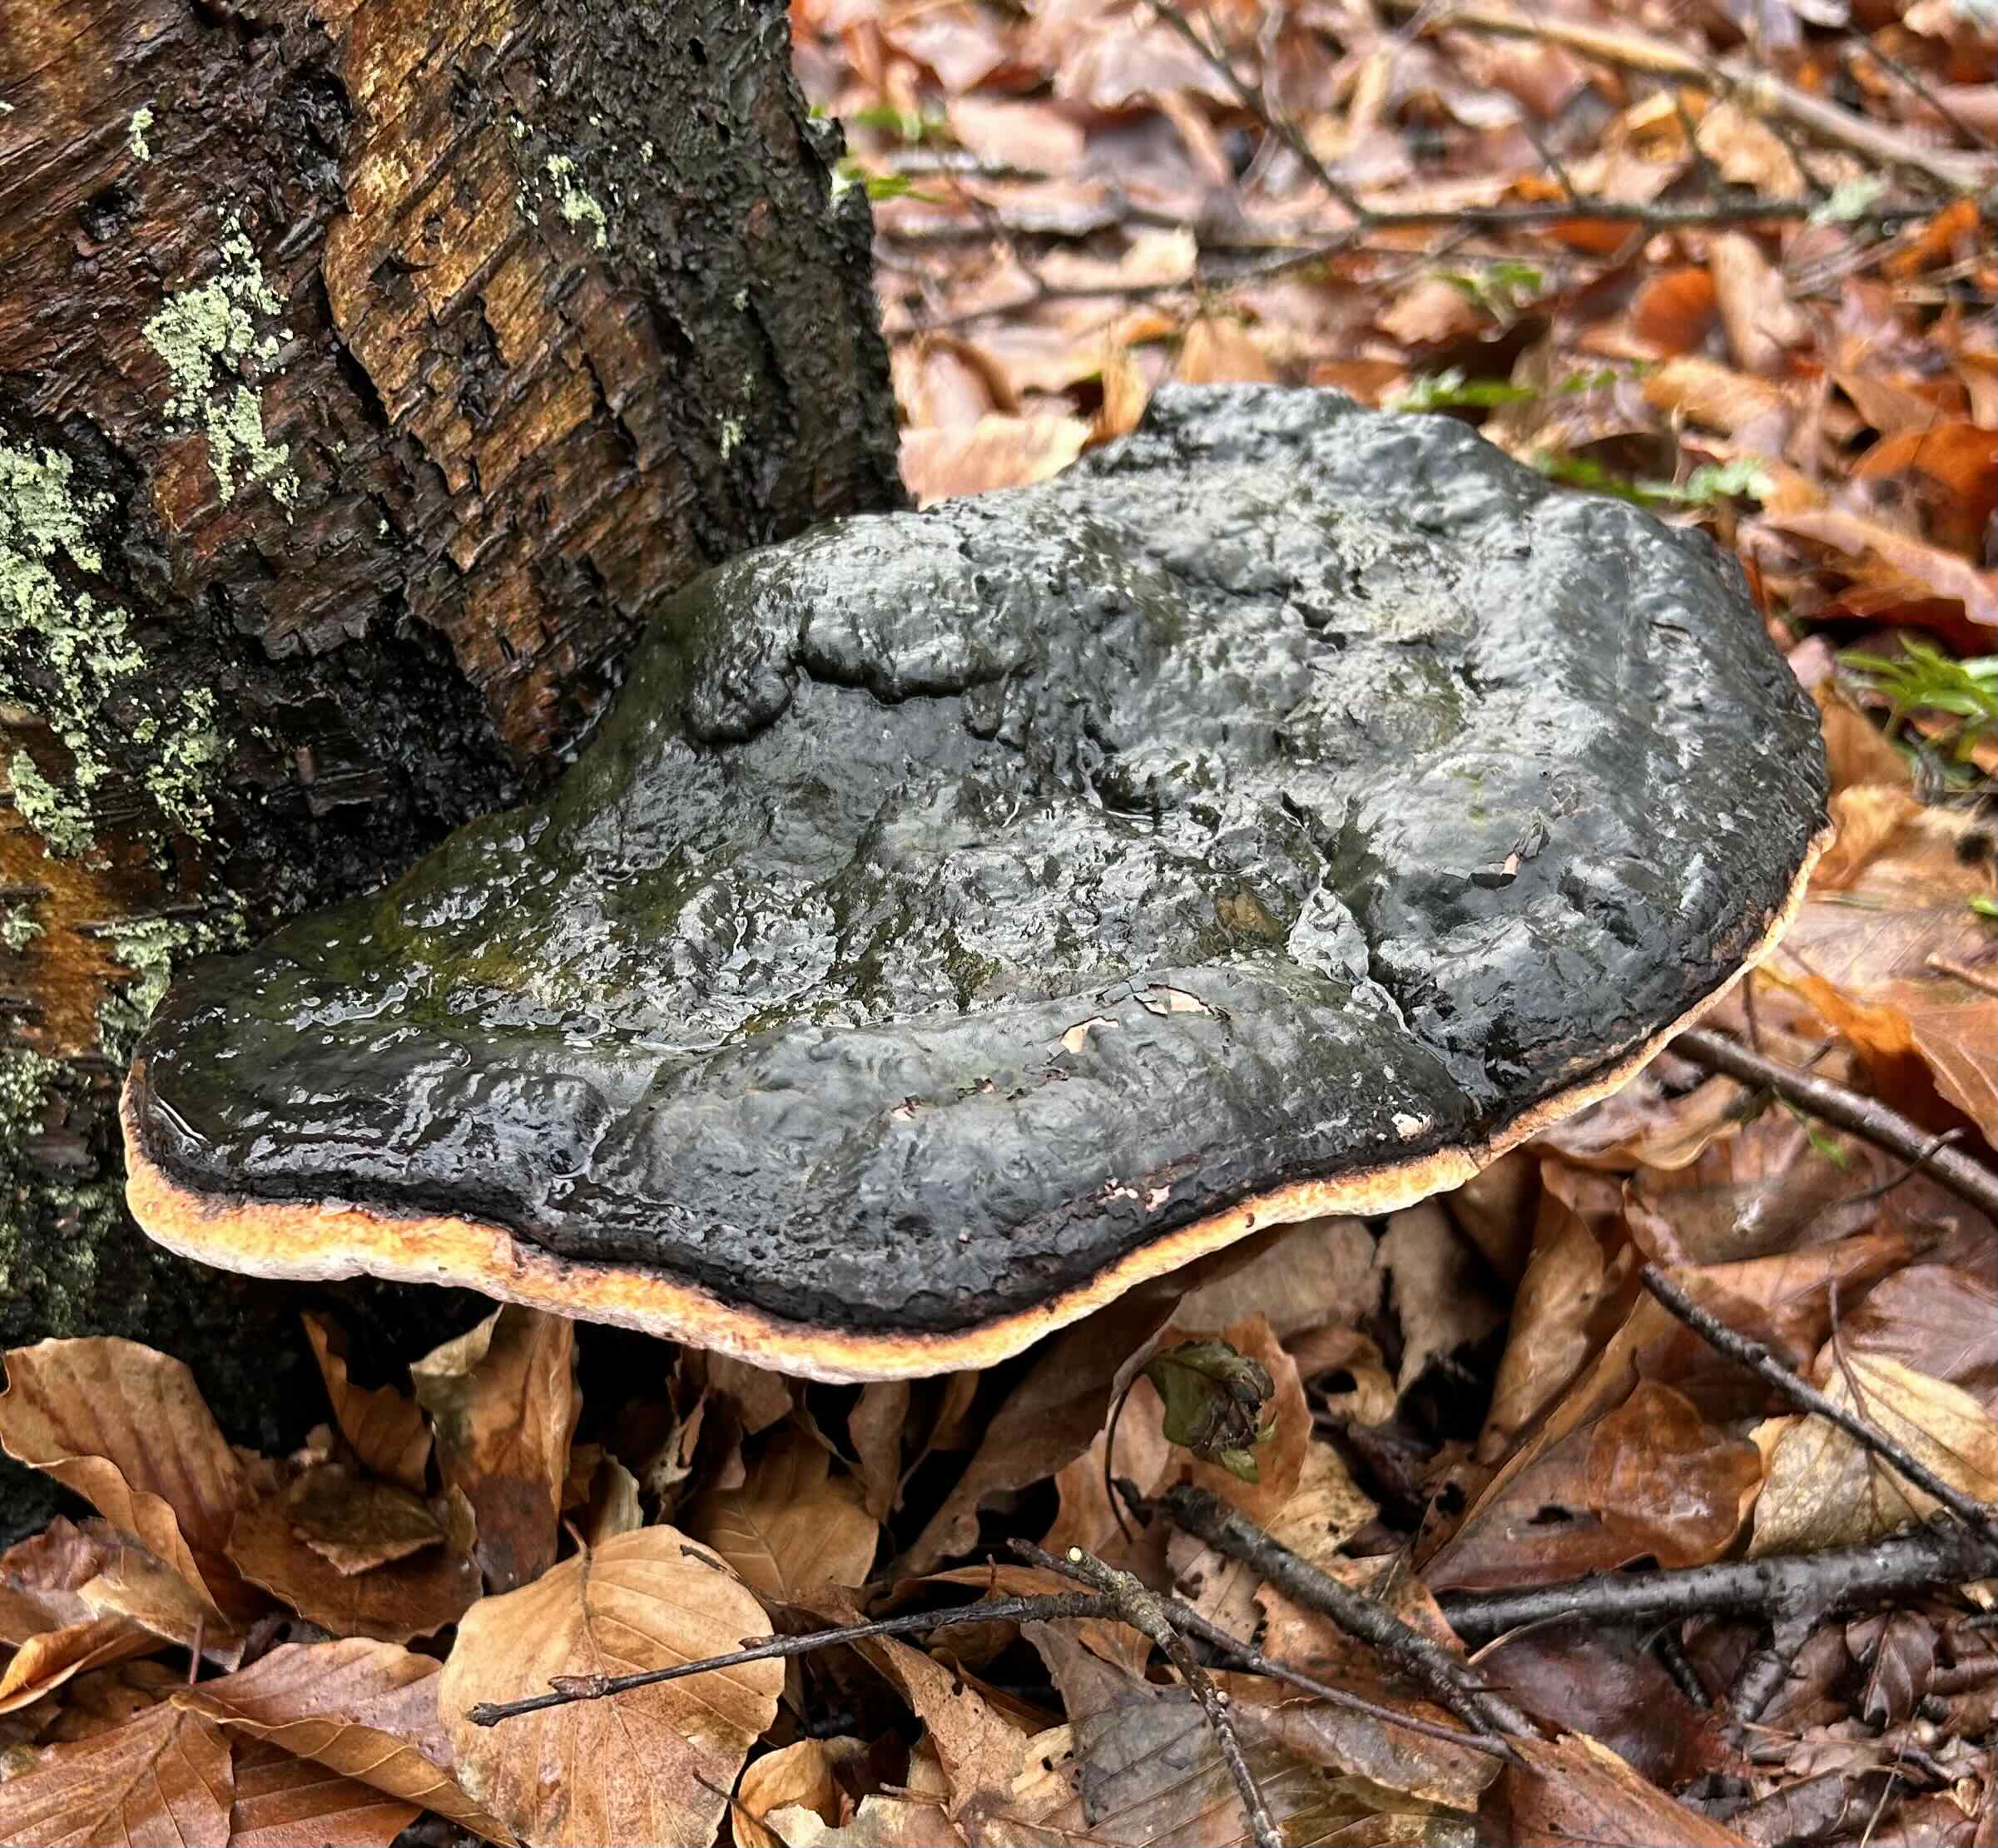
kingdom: Fungi
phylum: Basidiomycota
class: Agaricomycetes
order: Polyporales
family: Fomitopsidaceae
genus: Fomitopsis
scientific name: Fomitopsis pinicola
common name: randbæltet hovporesvamp
